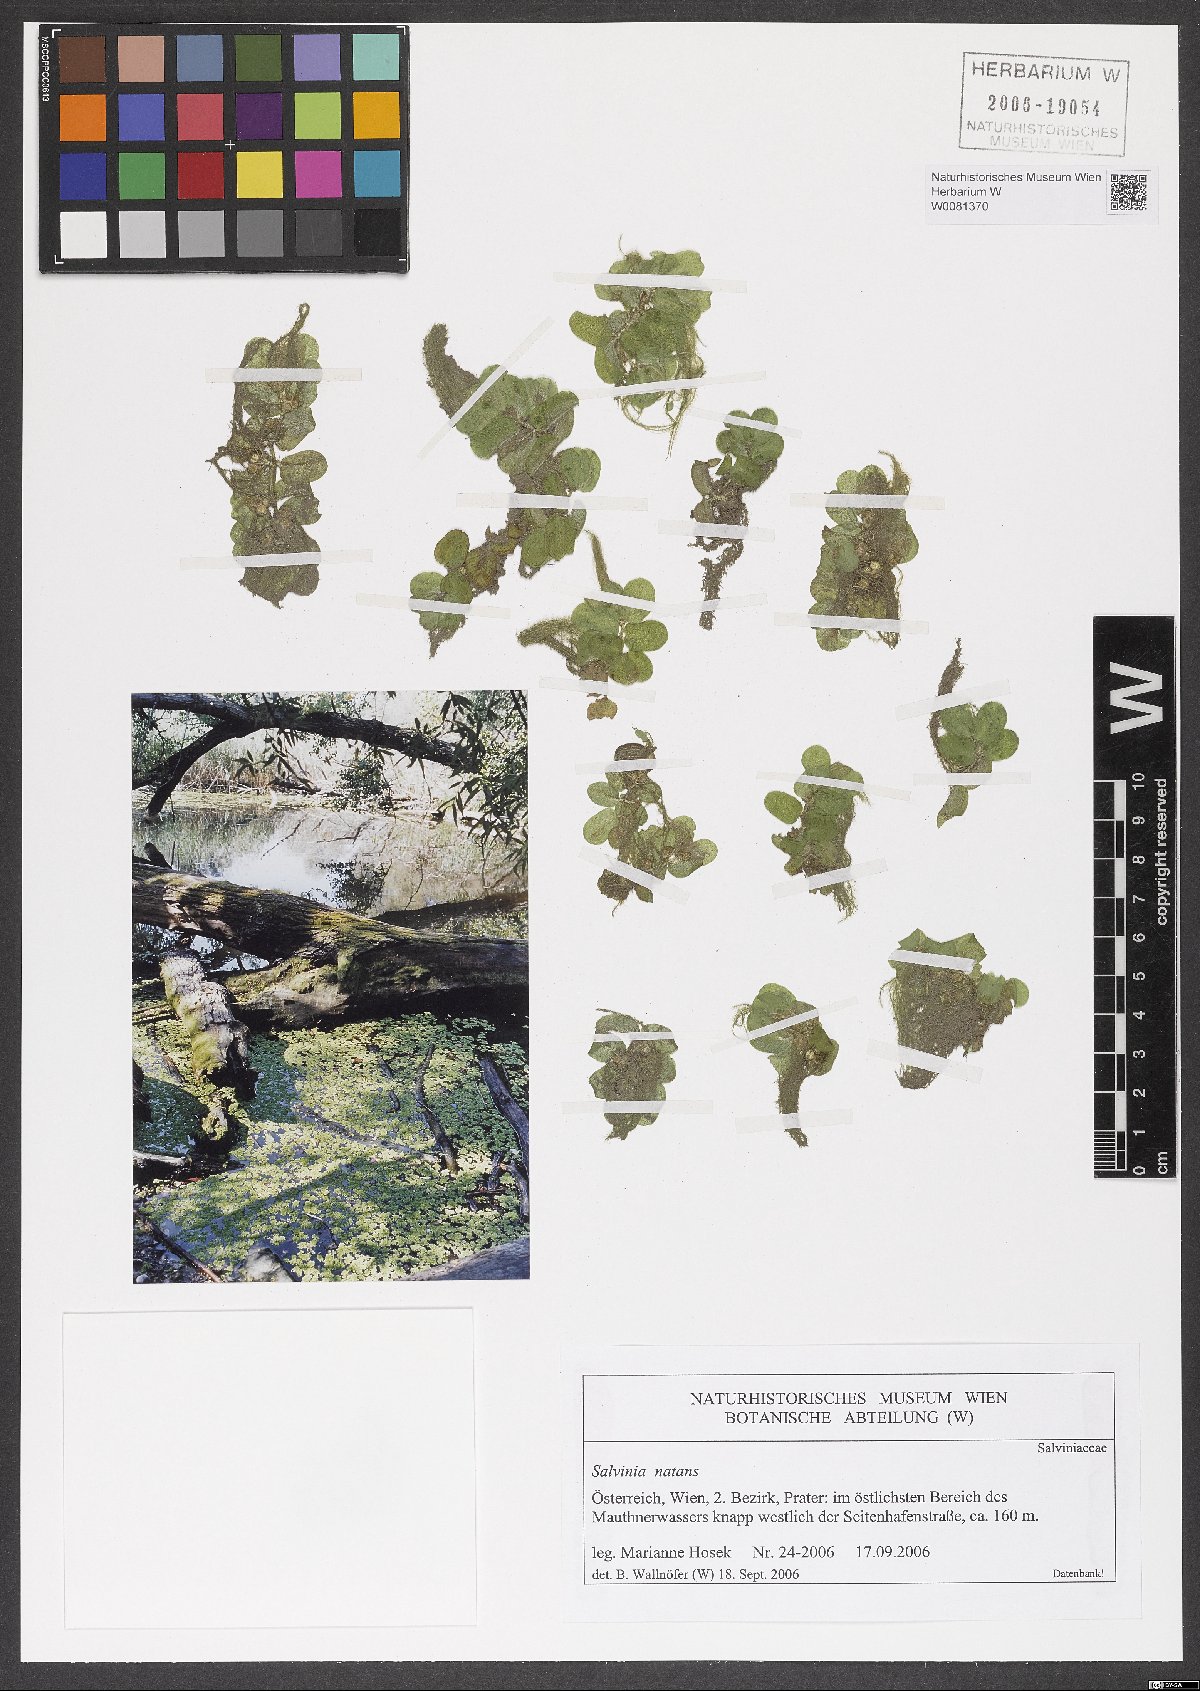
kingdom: Plantae
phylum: Tracheophyta
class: Polypodiopsida
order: Salviniales
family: Salviniaceae
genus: Salvinia
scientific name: Salvinia natans
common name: Floating fern
